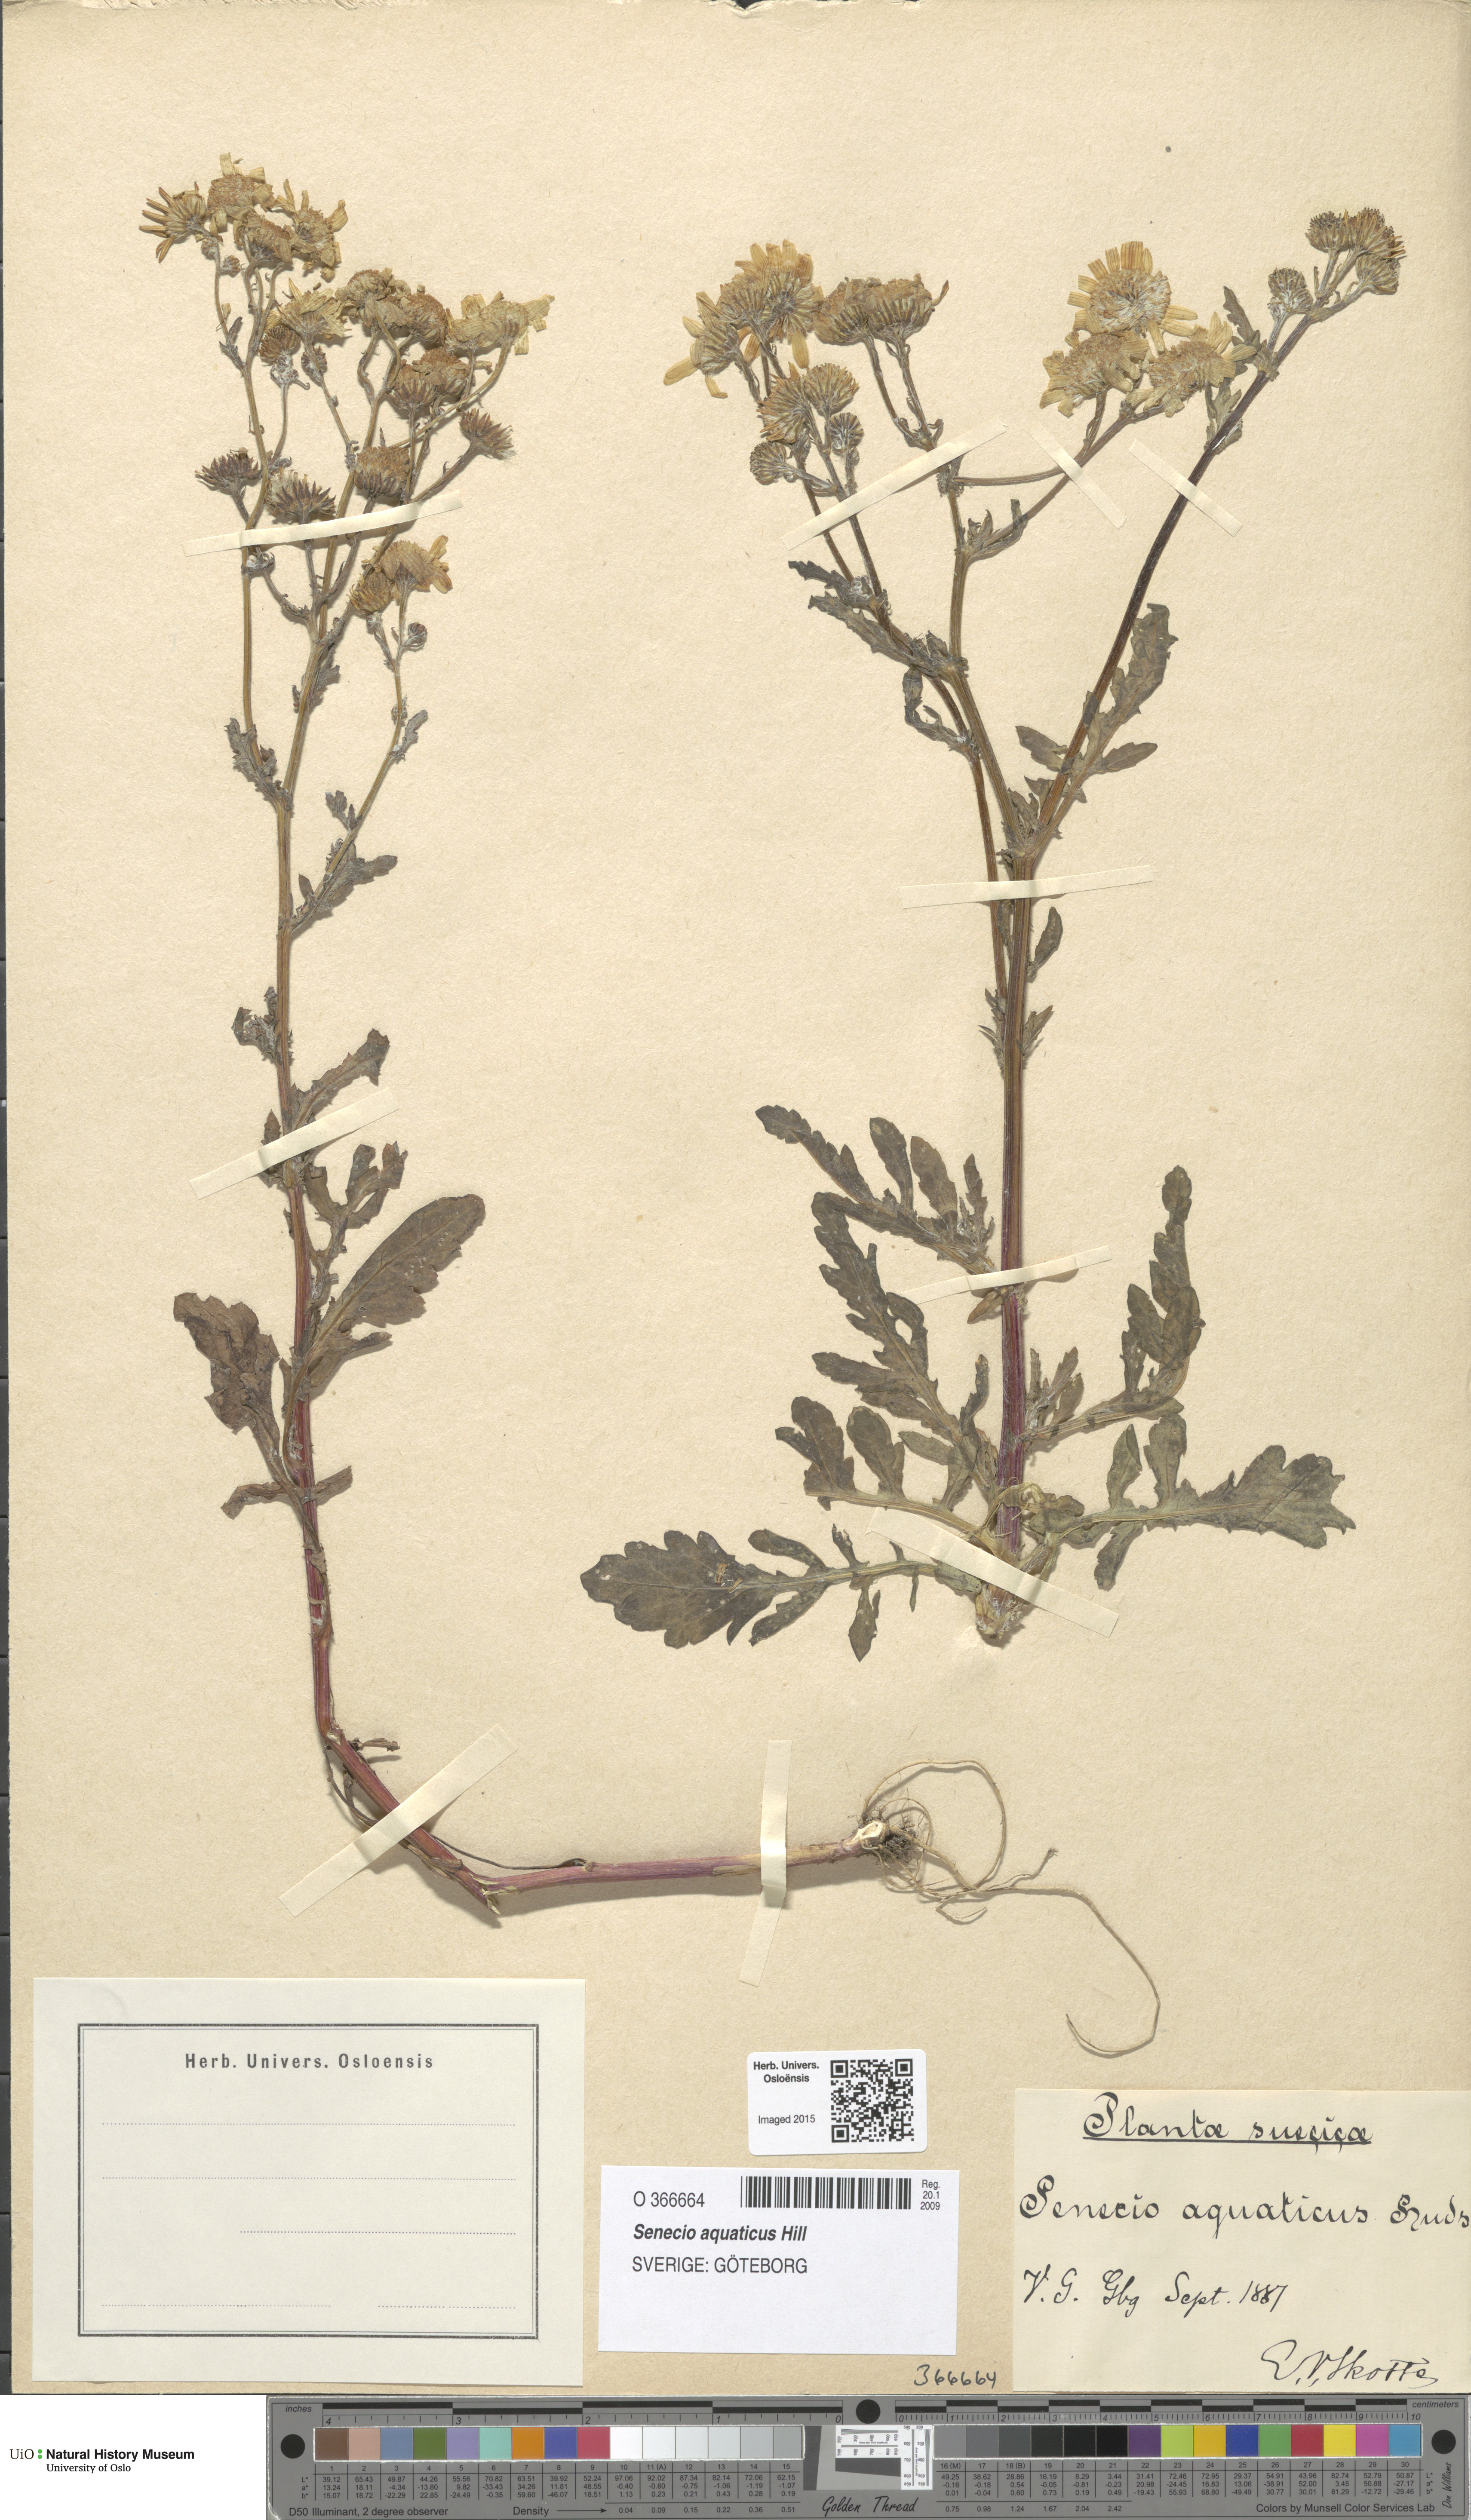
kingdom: Plantae
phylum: Tracheophyta
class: Magnoliopsida
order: Asterales
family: Asteraceae
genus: Jacobaea
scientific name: Jacobaea aquatica
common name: Water ragwort
